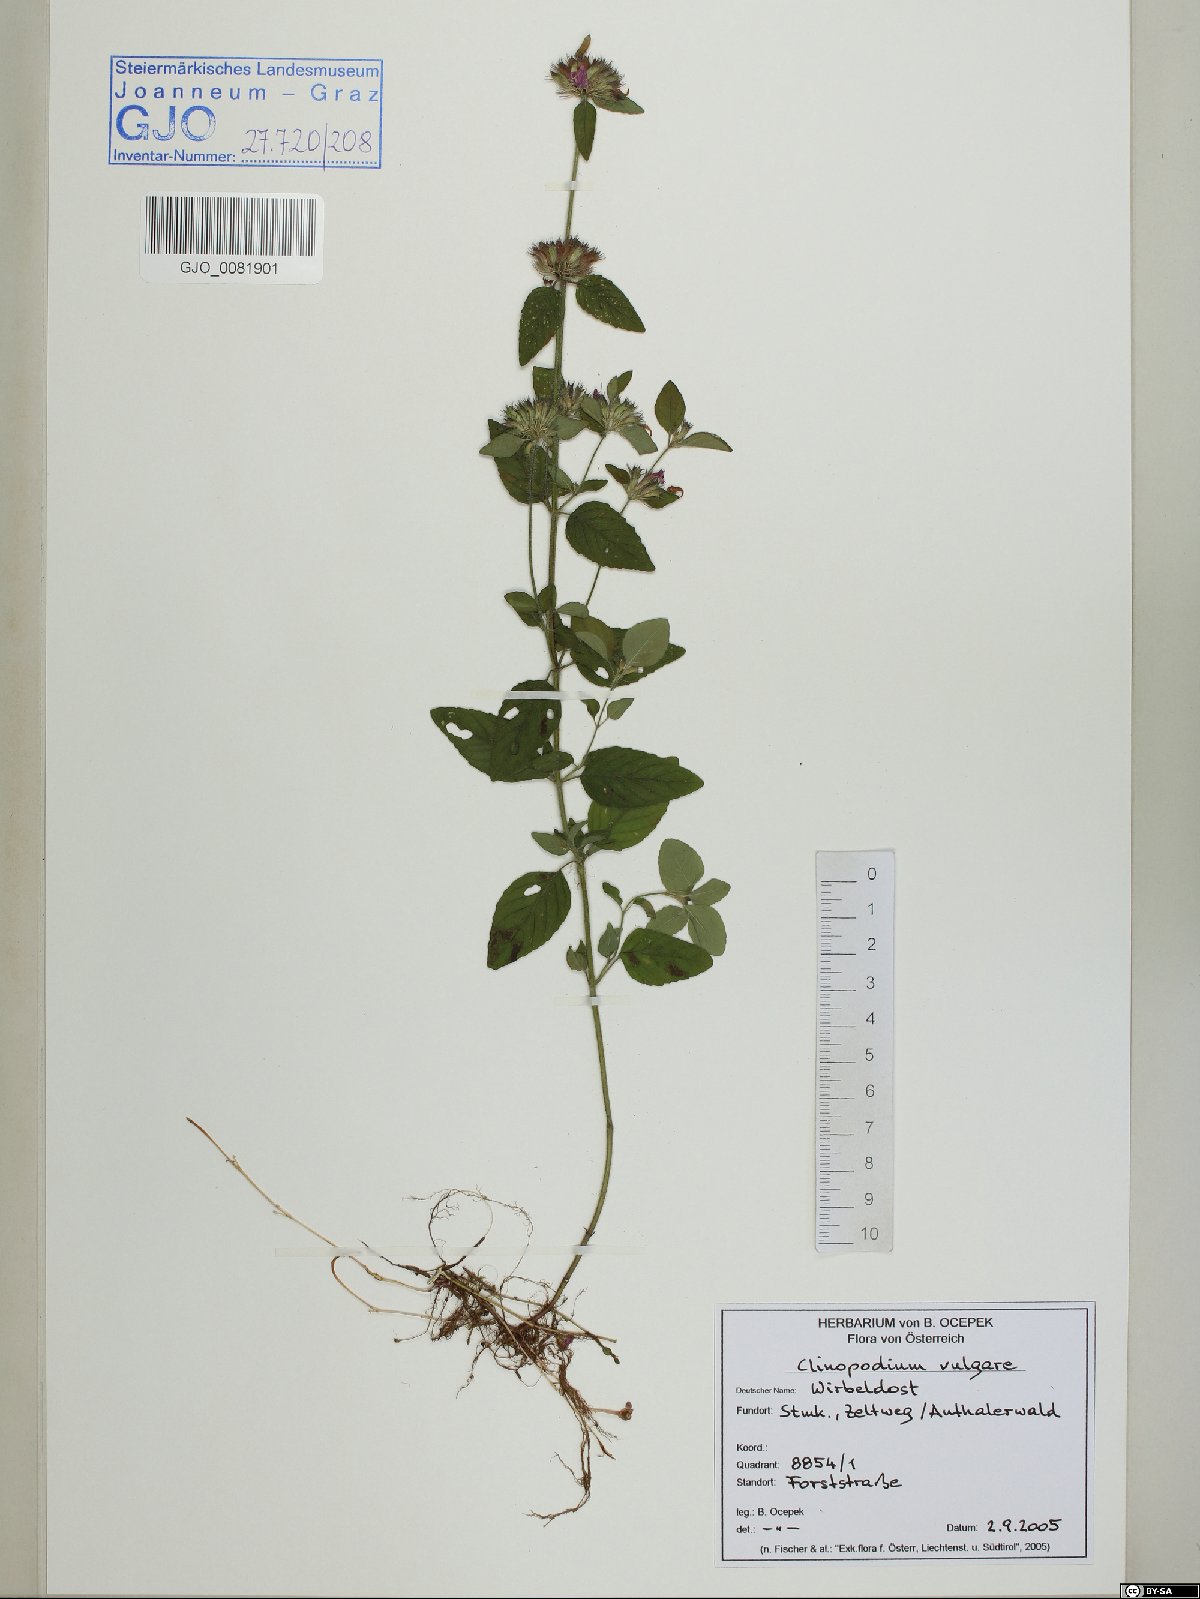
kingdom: Plantae
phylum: Tracheophyta
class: Magnoliopsida
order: Lamiales
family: Lamiaceae
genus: Clinopodium
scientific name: Clinopodium vulgare
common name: Wild basil
